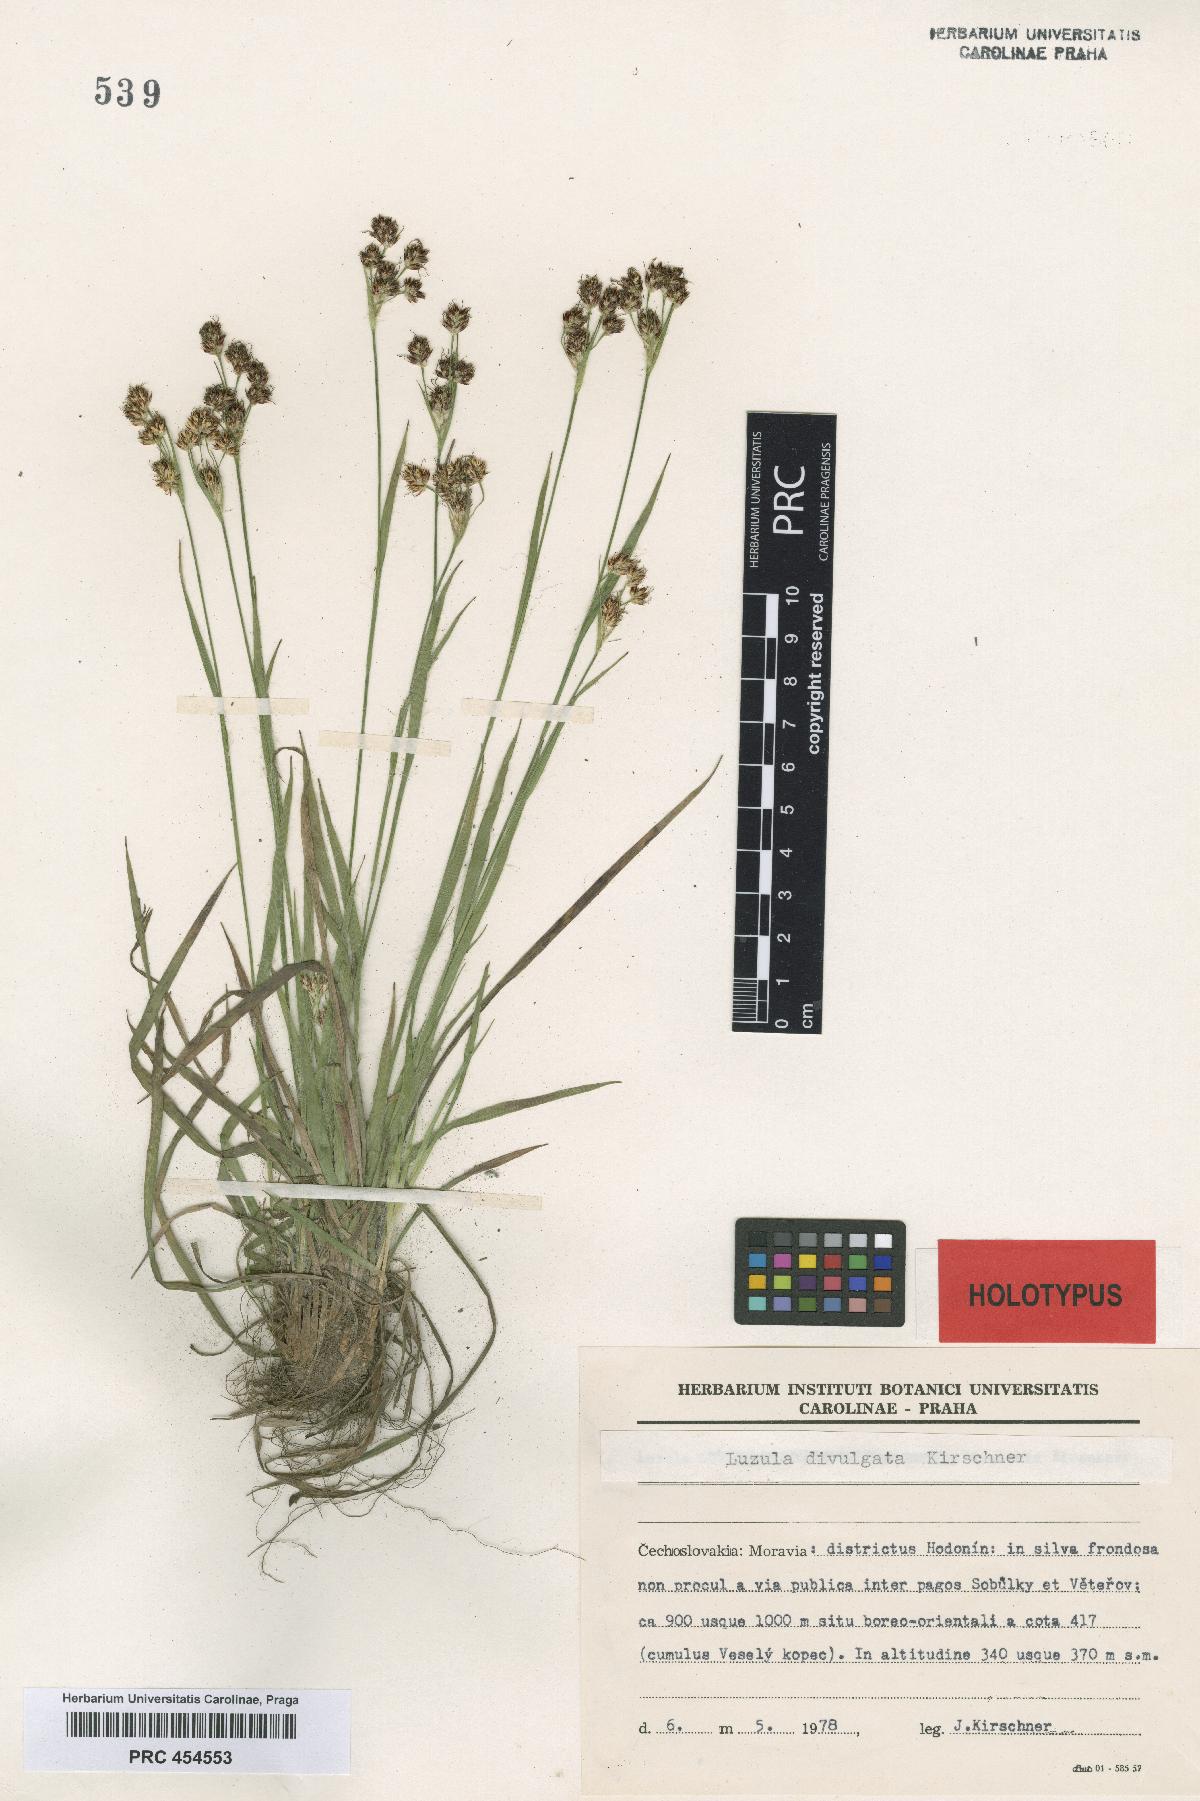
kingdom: Plantae
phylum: Tracheophyta
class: Liliopsida
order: Poales
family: Juncaceae
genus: Luzula
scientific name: Luzula divulgata
